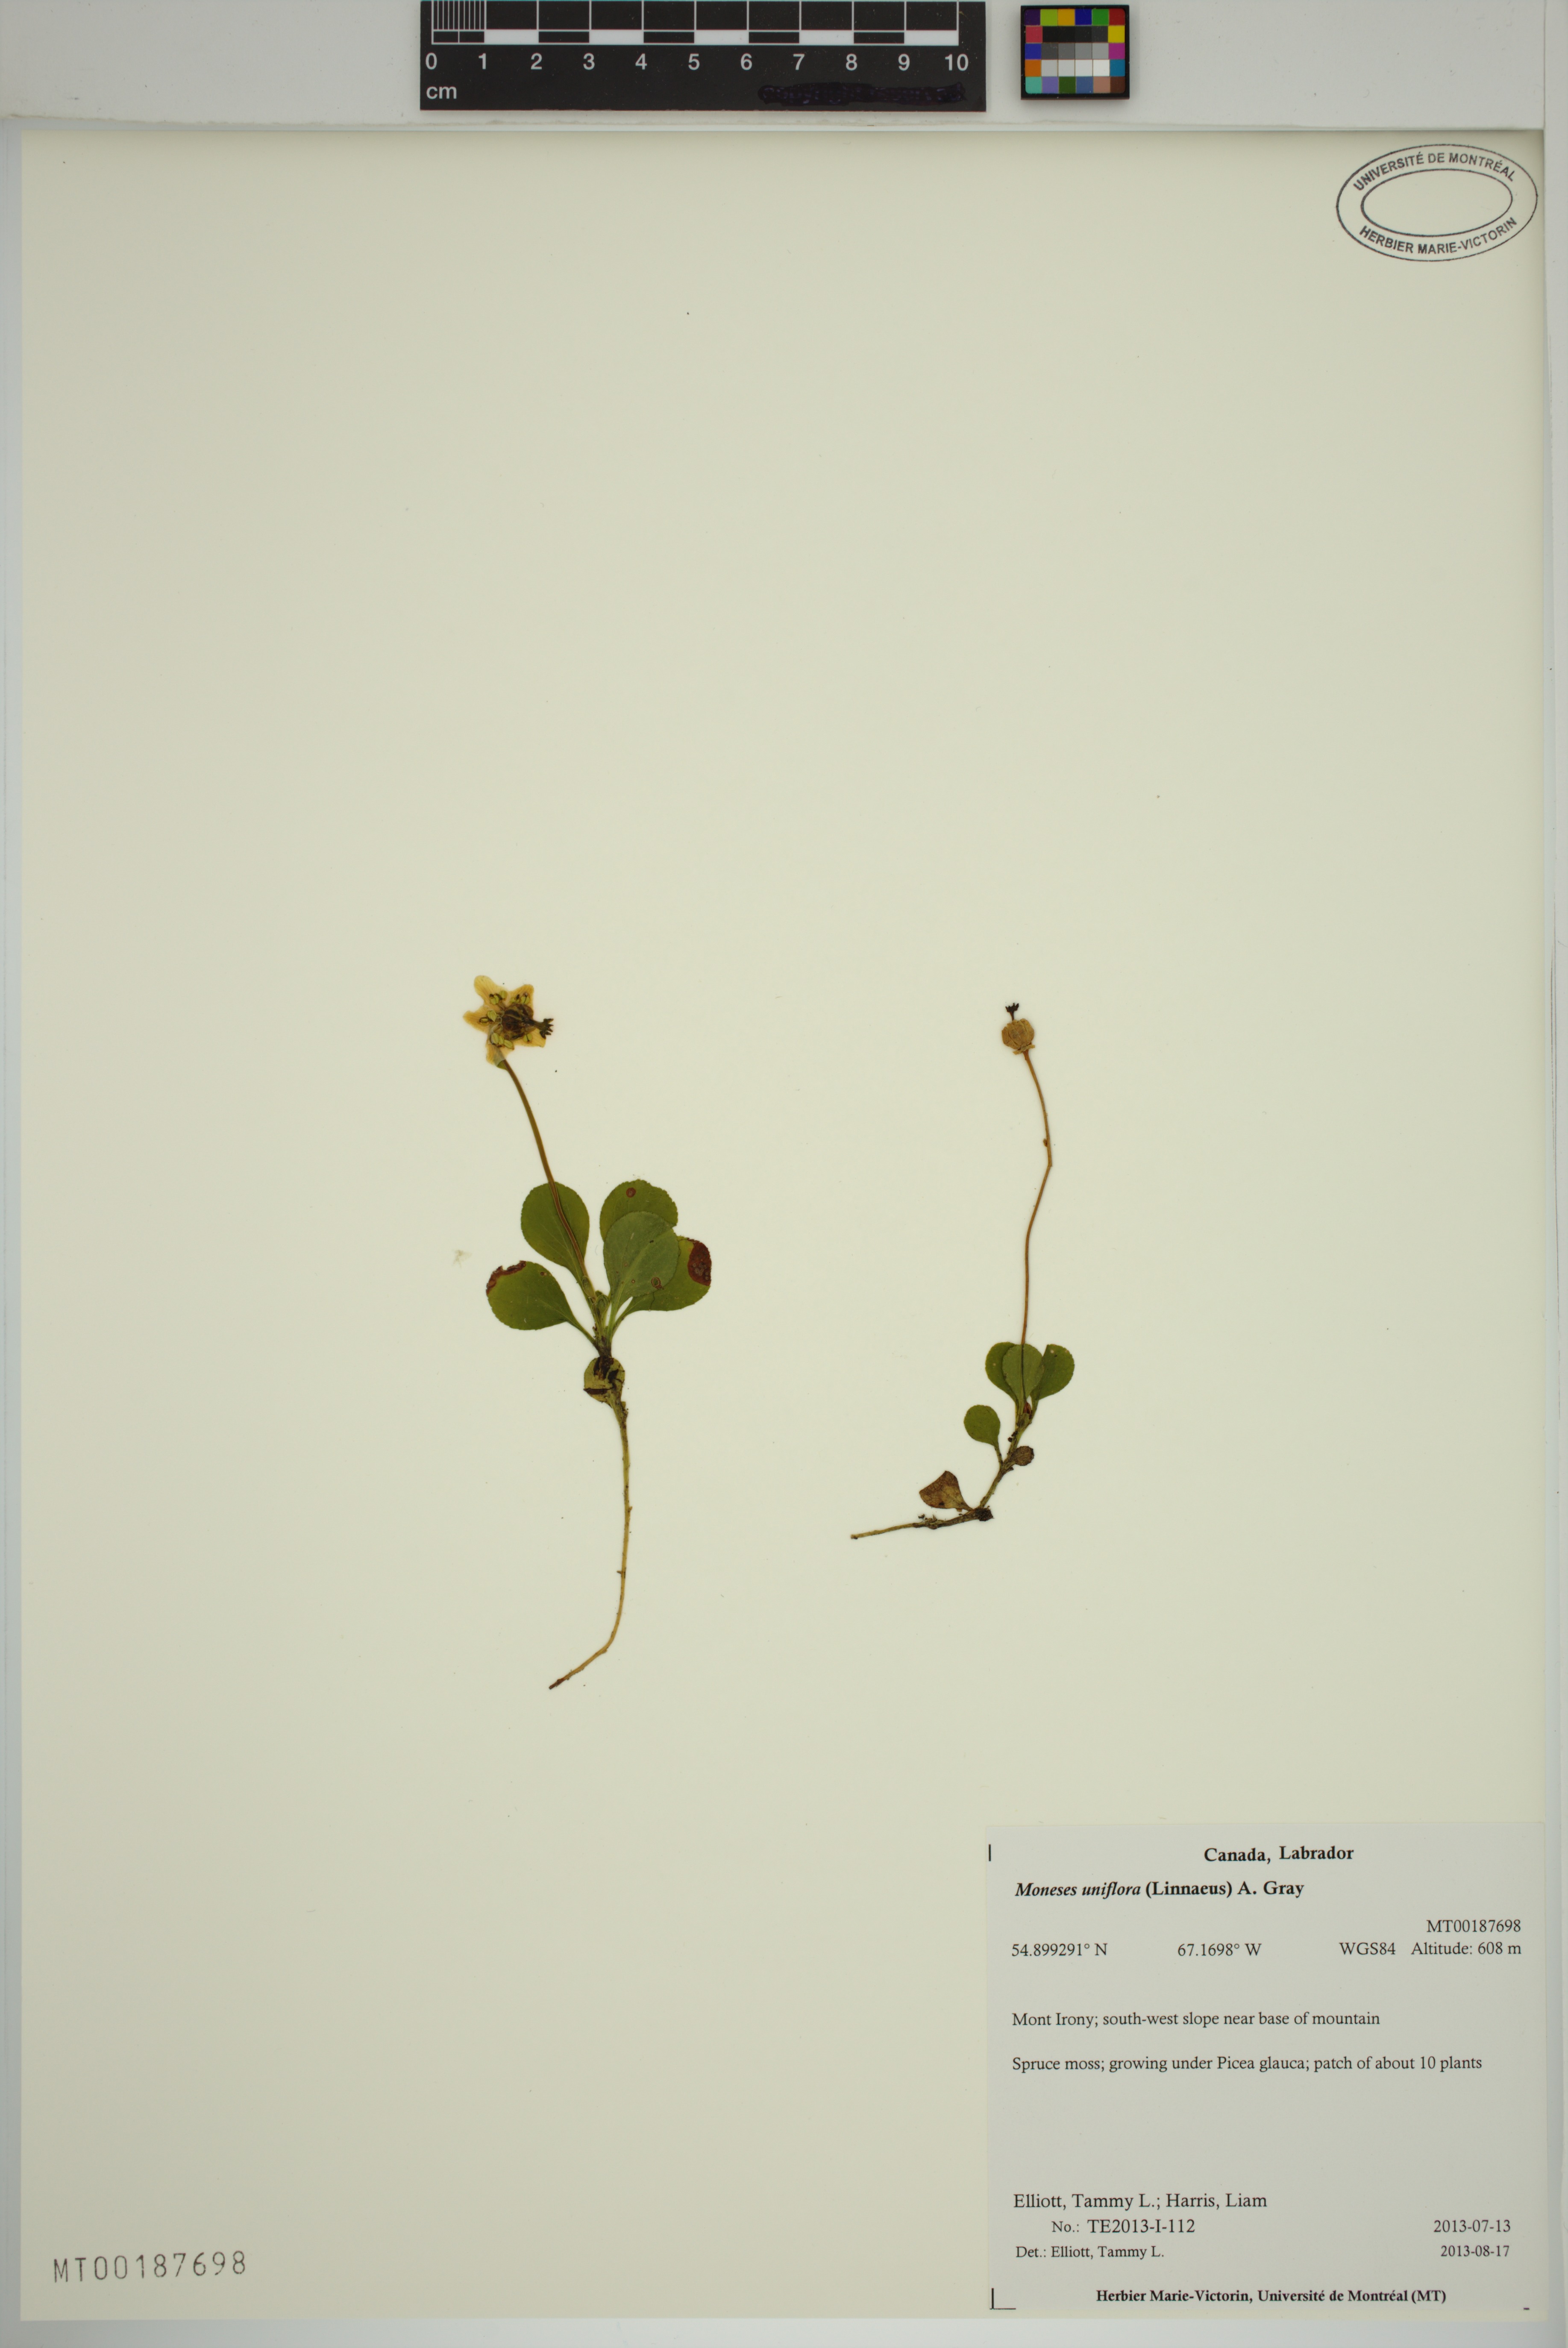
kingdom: Plantae
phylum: Tracheophyta
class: Magnoliopsida
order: Ericales
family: Ericaceae
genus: Moneses
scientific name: Moneses uniflora
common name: One-flowered wintergreen
